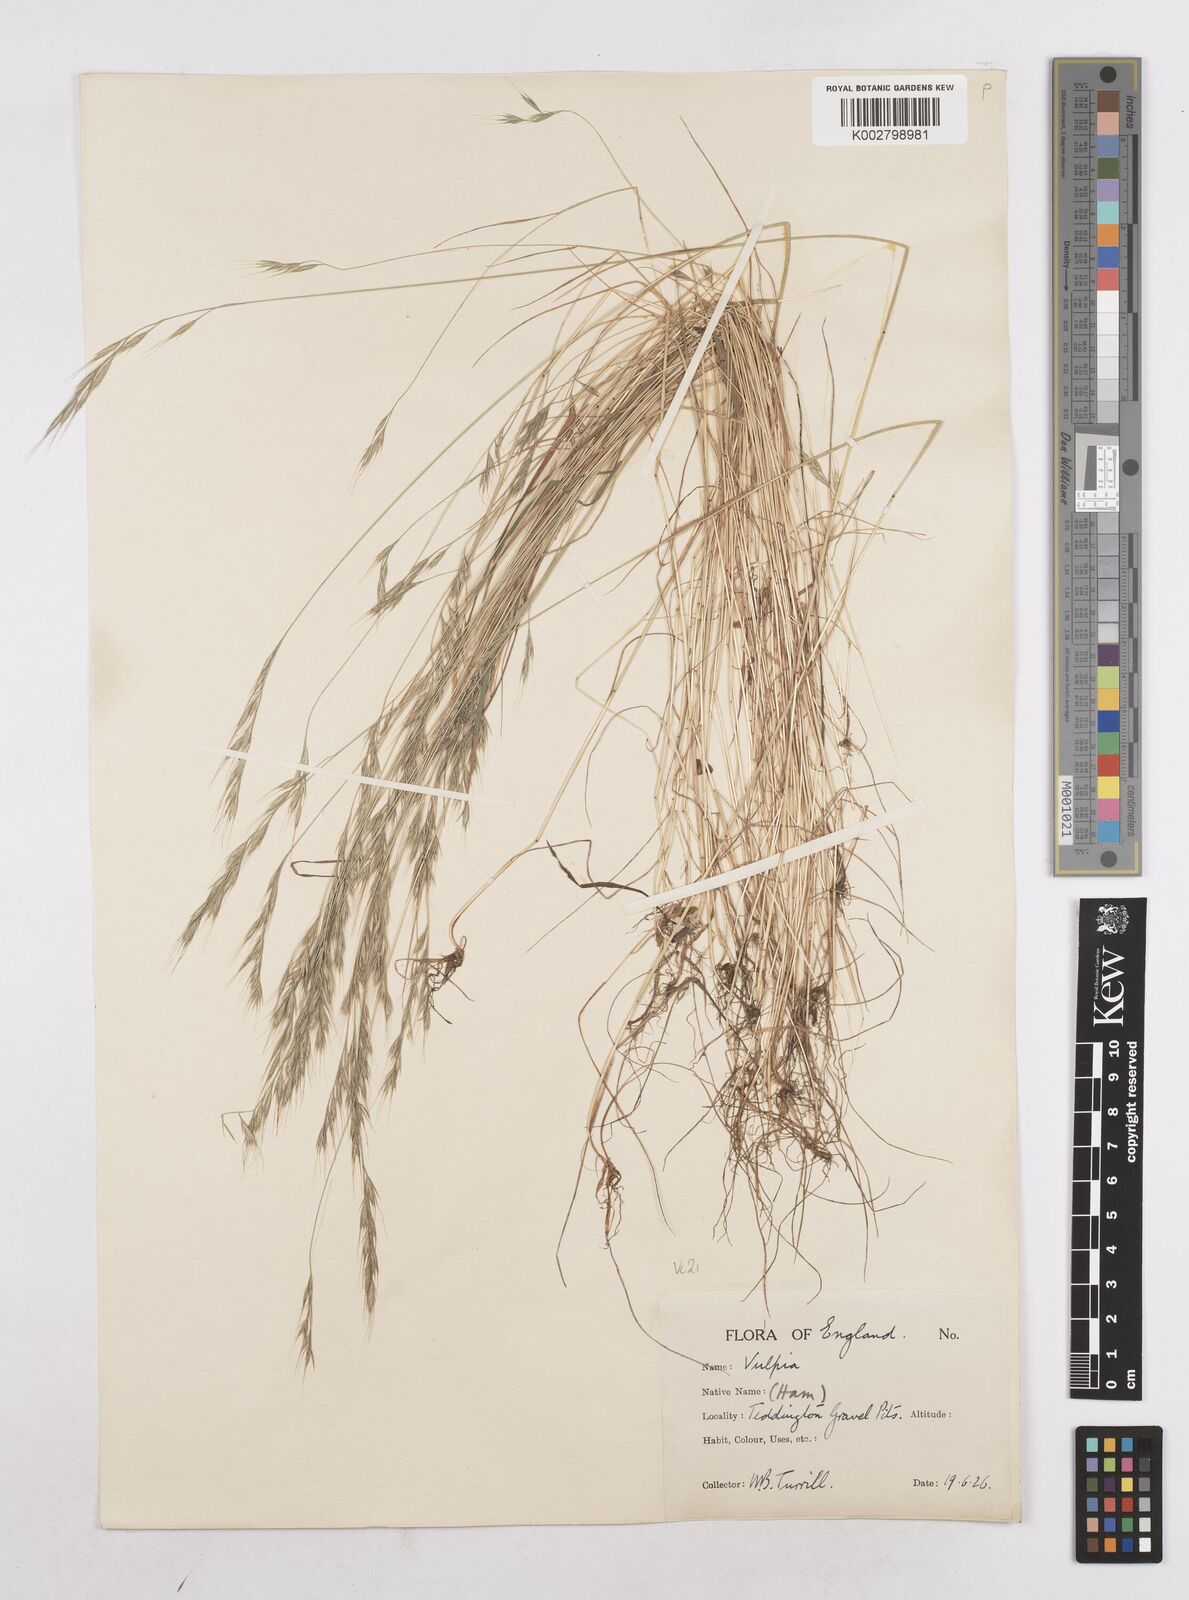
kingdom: Plantae
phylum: Tracheophyta
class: Liliopsida
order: Poales
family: Poaceae
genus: Festuca
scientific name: Festuca bromoides
